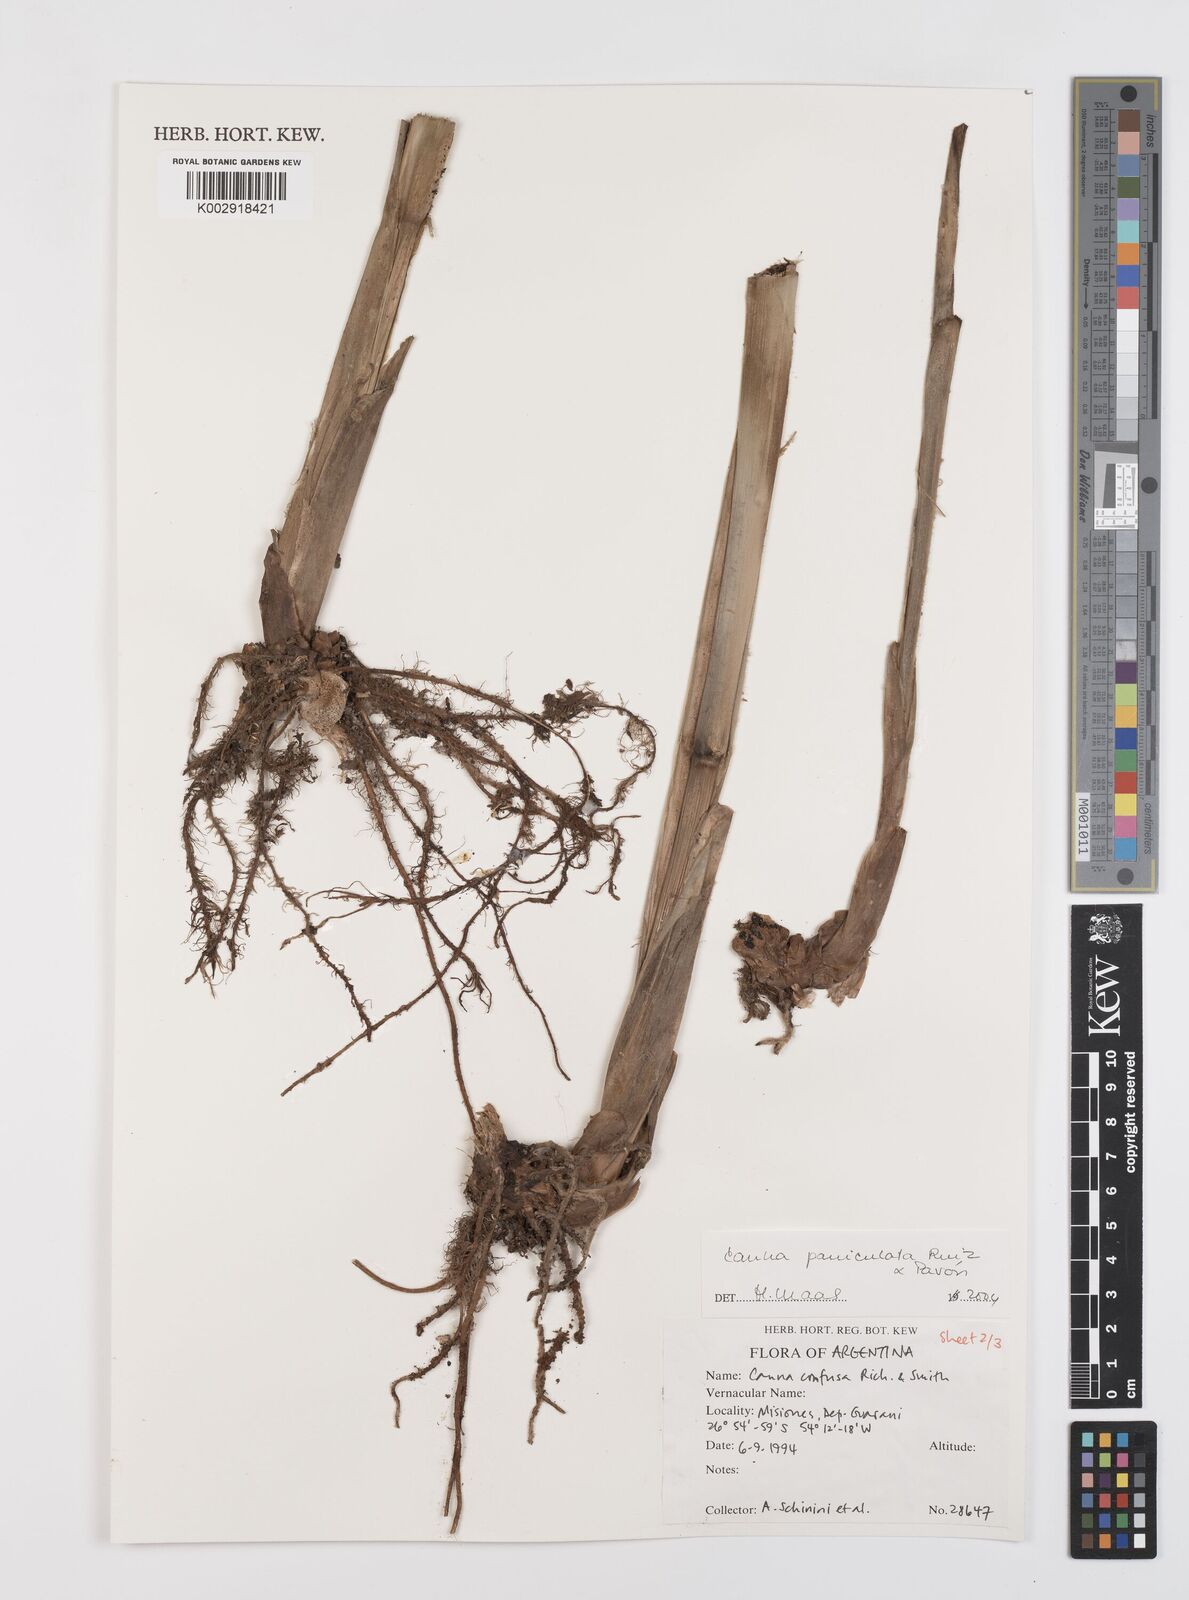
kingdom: Plantae
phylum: Tracheophyta
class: Liliopsida
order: Zingiberales
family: Cannaceae
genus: Canna
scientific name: Canna paniculata
